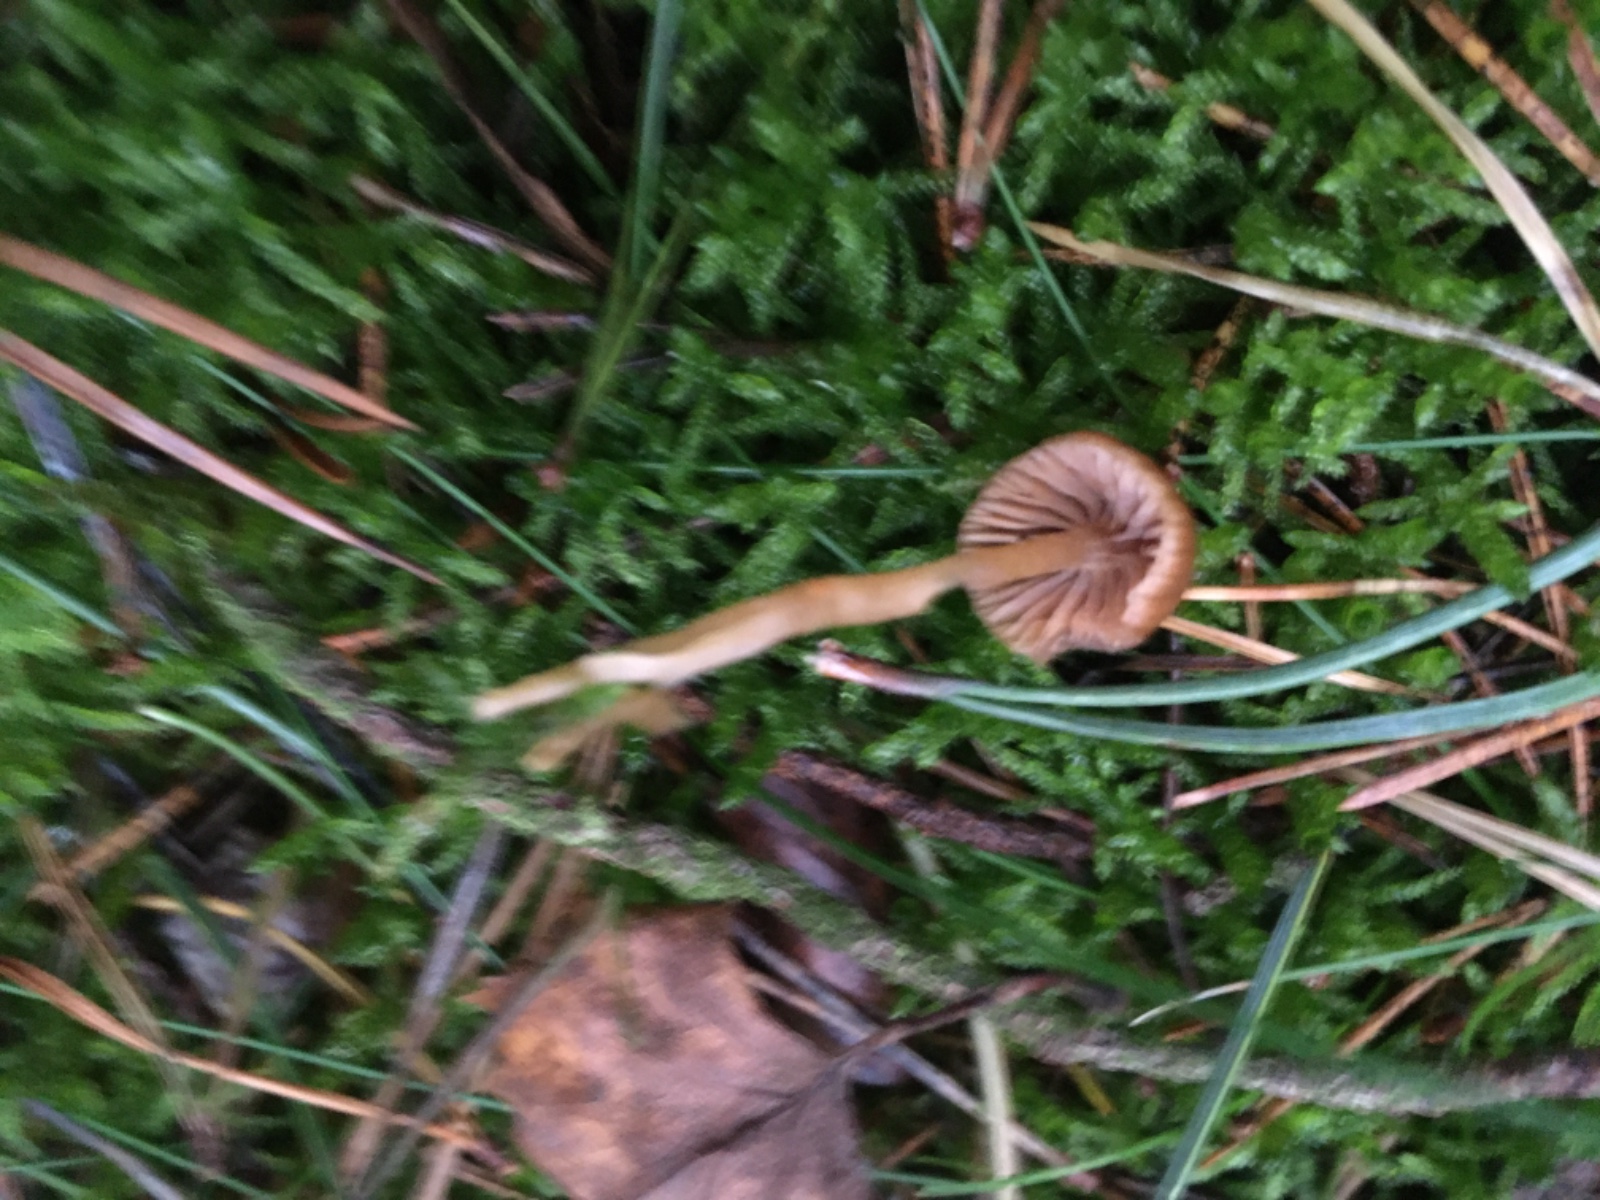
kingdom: Fungi
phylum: Basidiomycota
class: Agaricomycetes
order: Agaricales
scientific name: Agaricales
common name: champignonordenen
